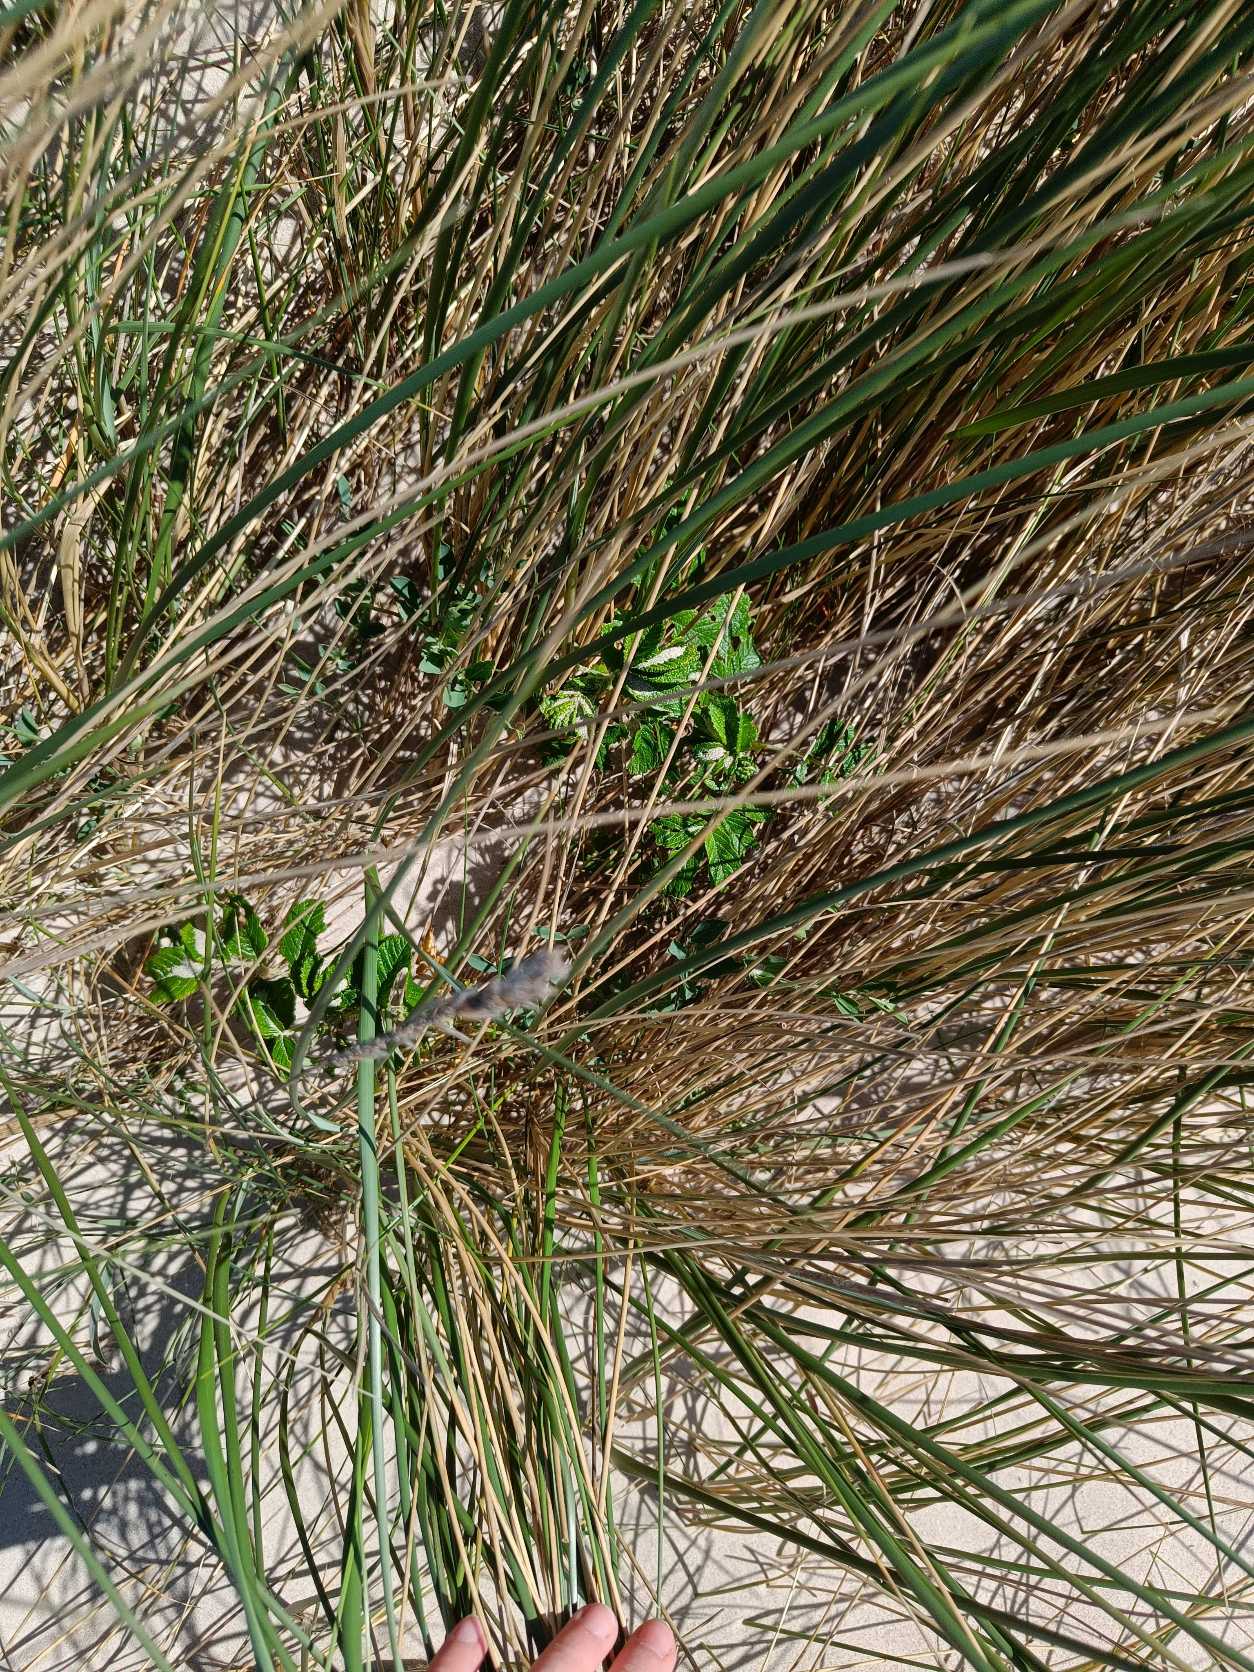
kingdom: Plantae
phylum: Tracheophyta
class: Magnoliopsida
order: Rosales
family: Rosaceae
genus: Rosa
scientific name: Rosa rugosa
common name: Rynket rose
